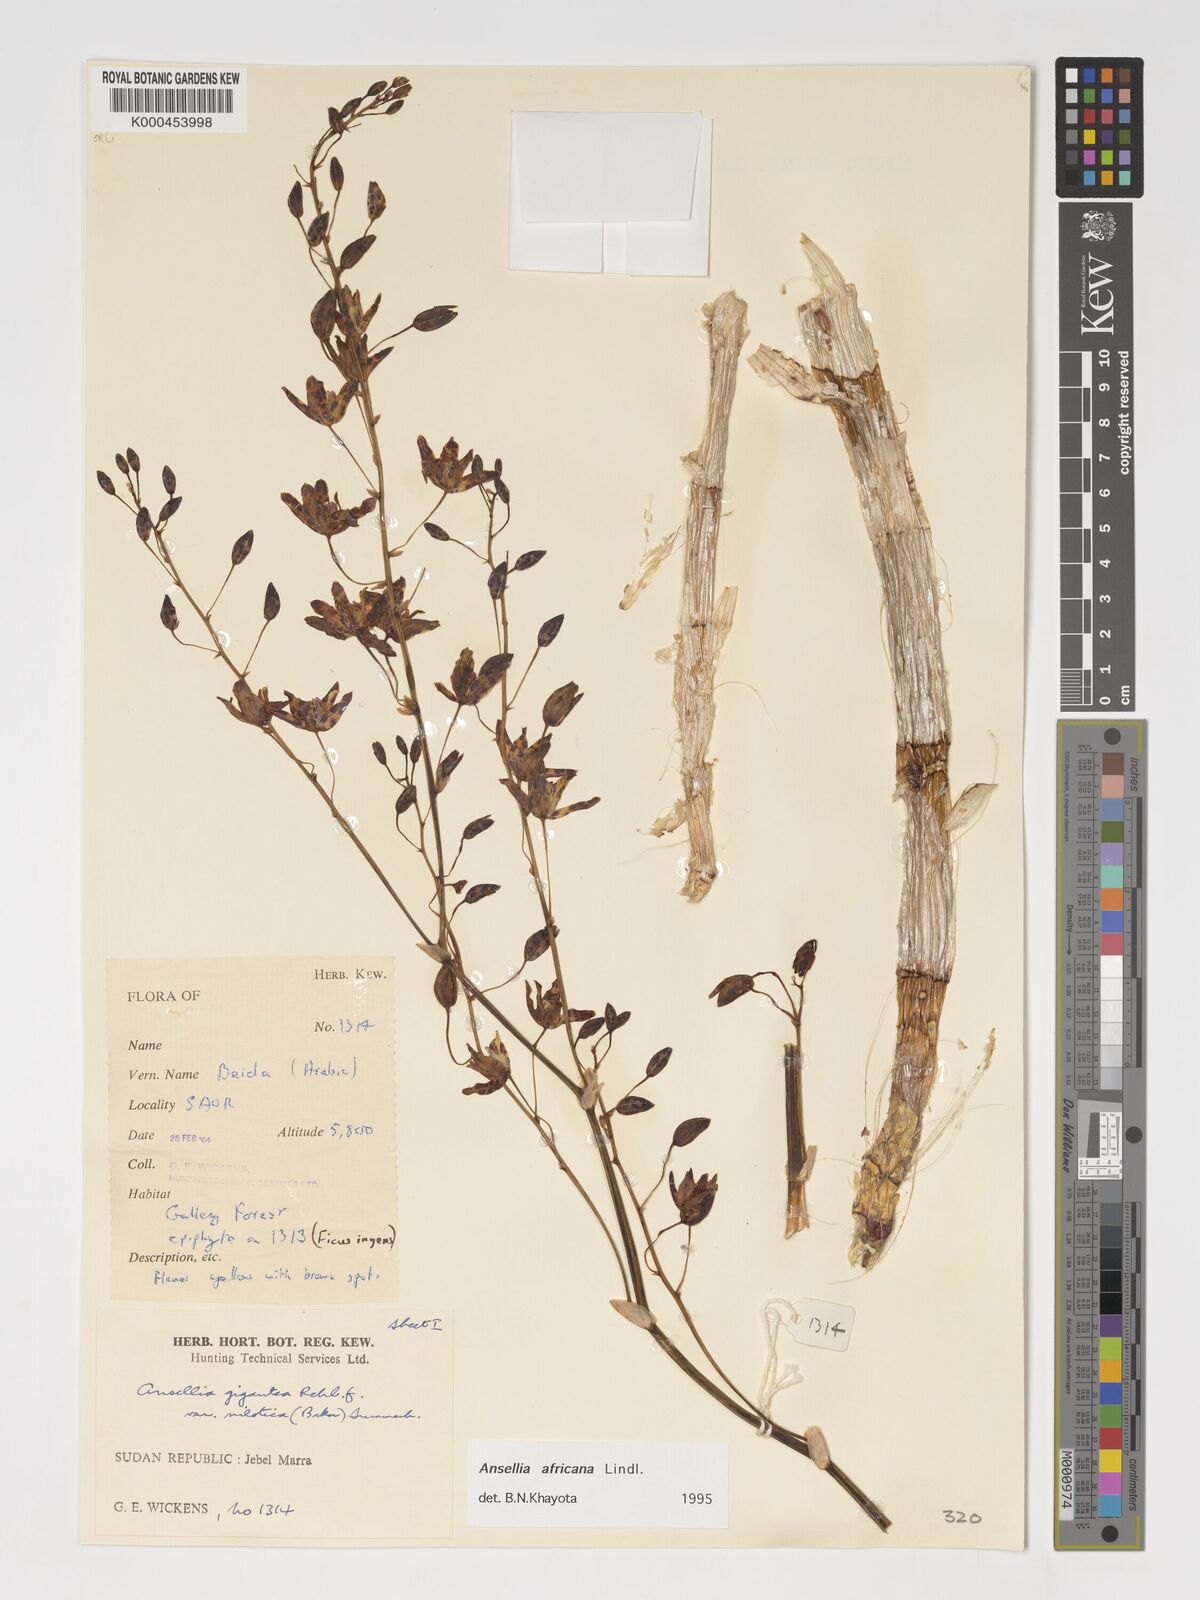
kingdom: Plantae
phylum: Tracheophyta
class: Liliopsida
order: Asparagales
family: Orchidaceae
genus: Ansellia
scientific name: Ansellia africana
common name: African ansellia
